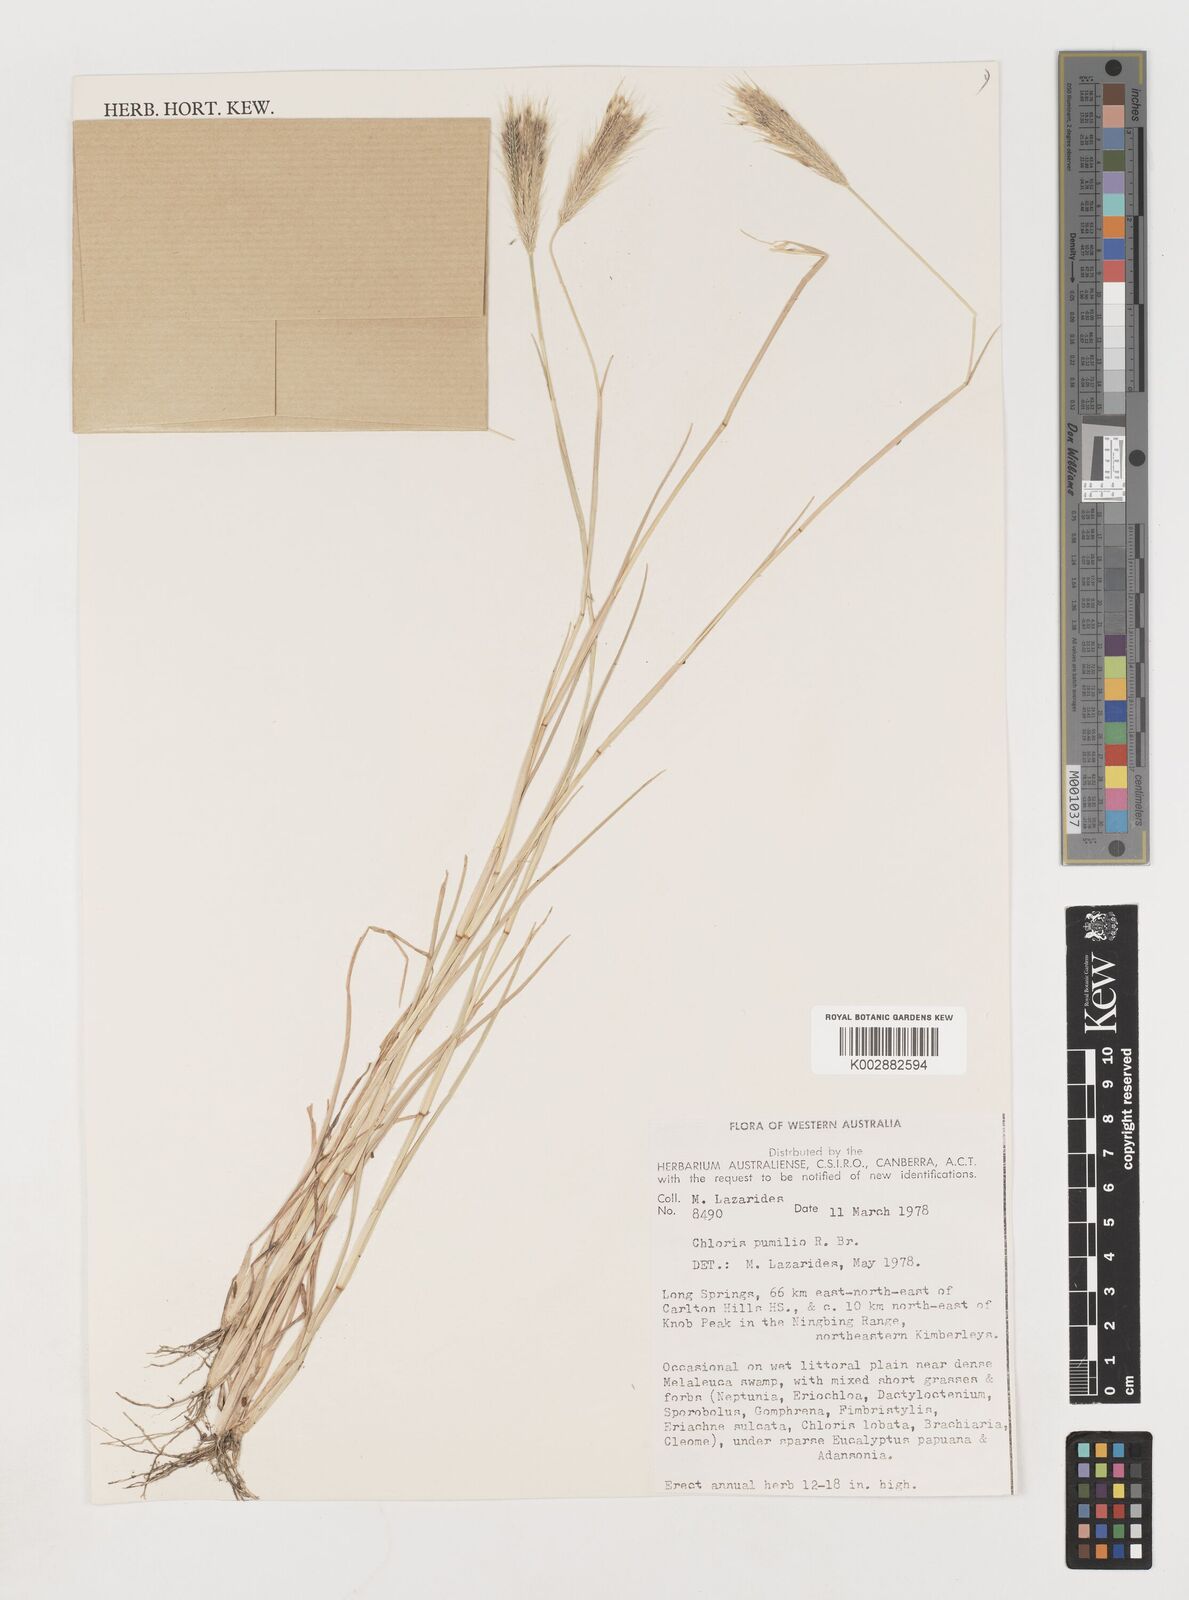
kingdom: Plantae
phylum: Tracheophyta
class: Liliopsida
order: Poales
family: Poaceae
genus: Chloris
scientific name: Chloris pumilio
